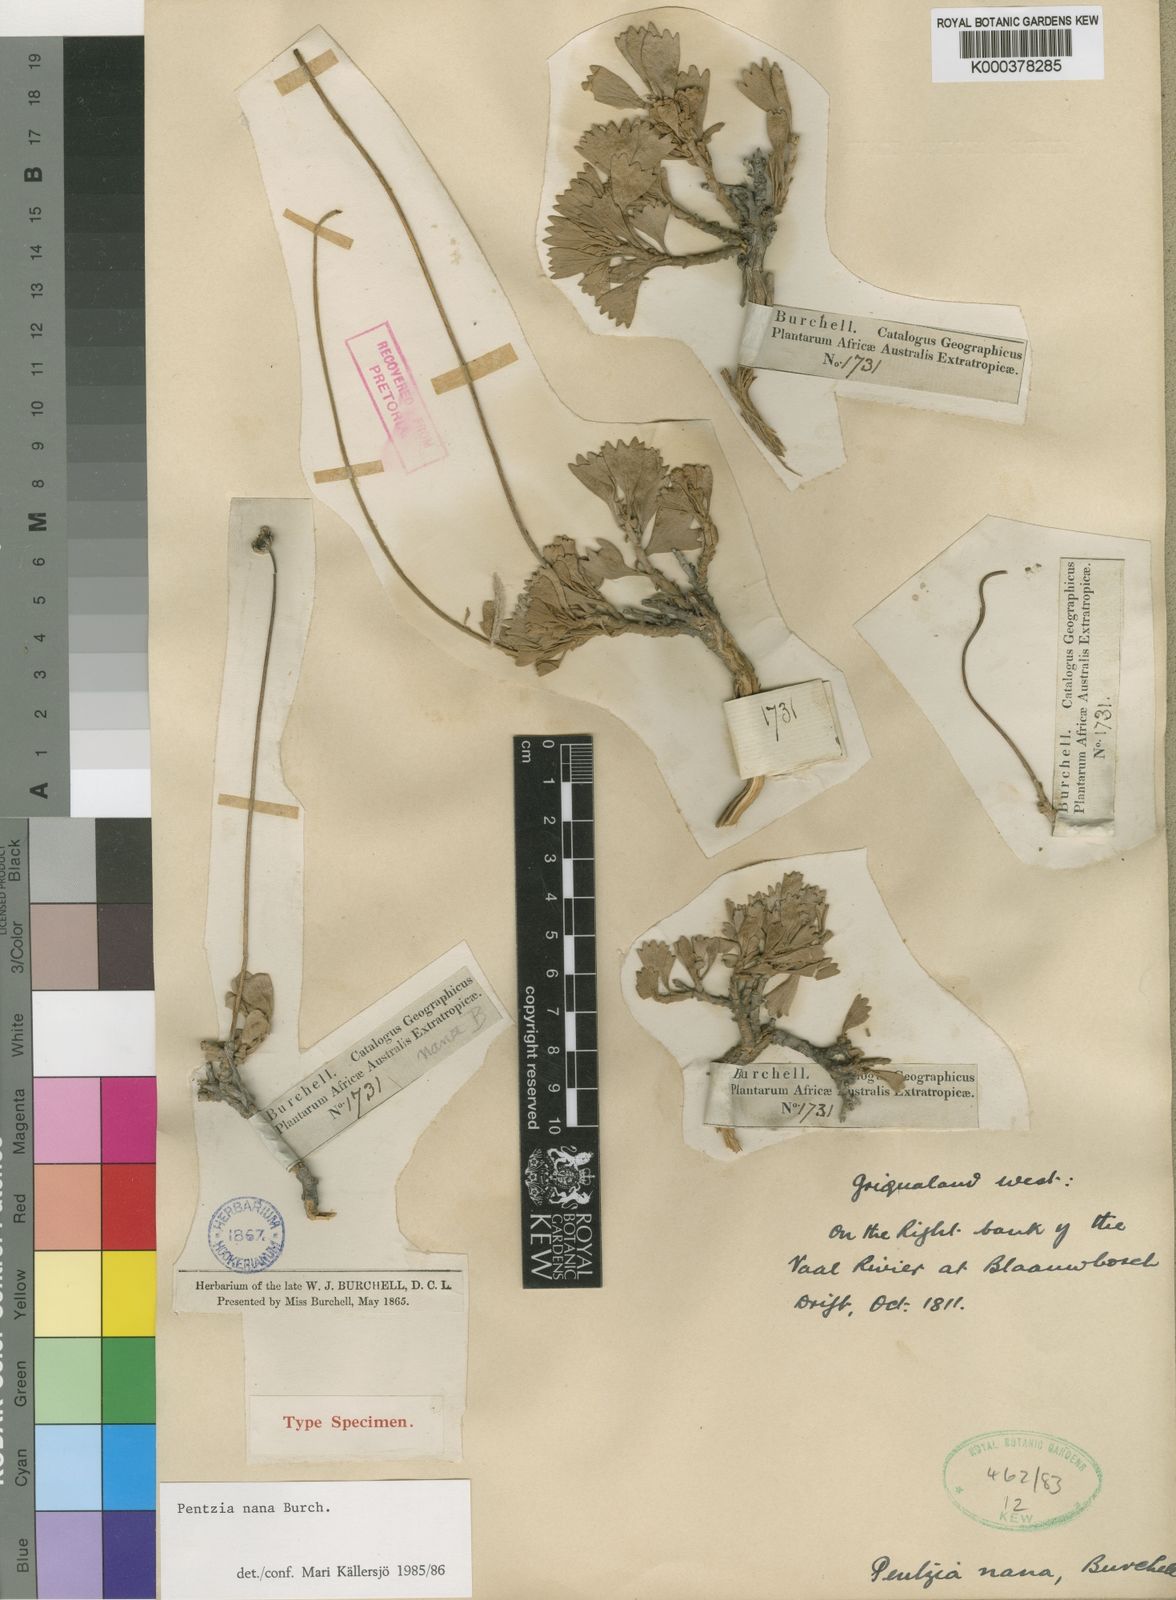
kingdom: Plantae
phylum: Tracheophyta
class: Magnoliopsida
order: Asterales
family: Asteraceae
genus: Pentzia
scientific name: Pentzia nana
